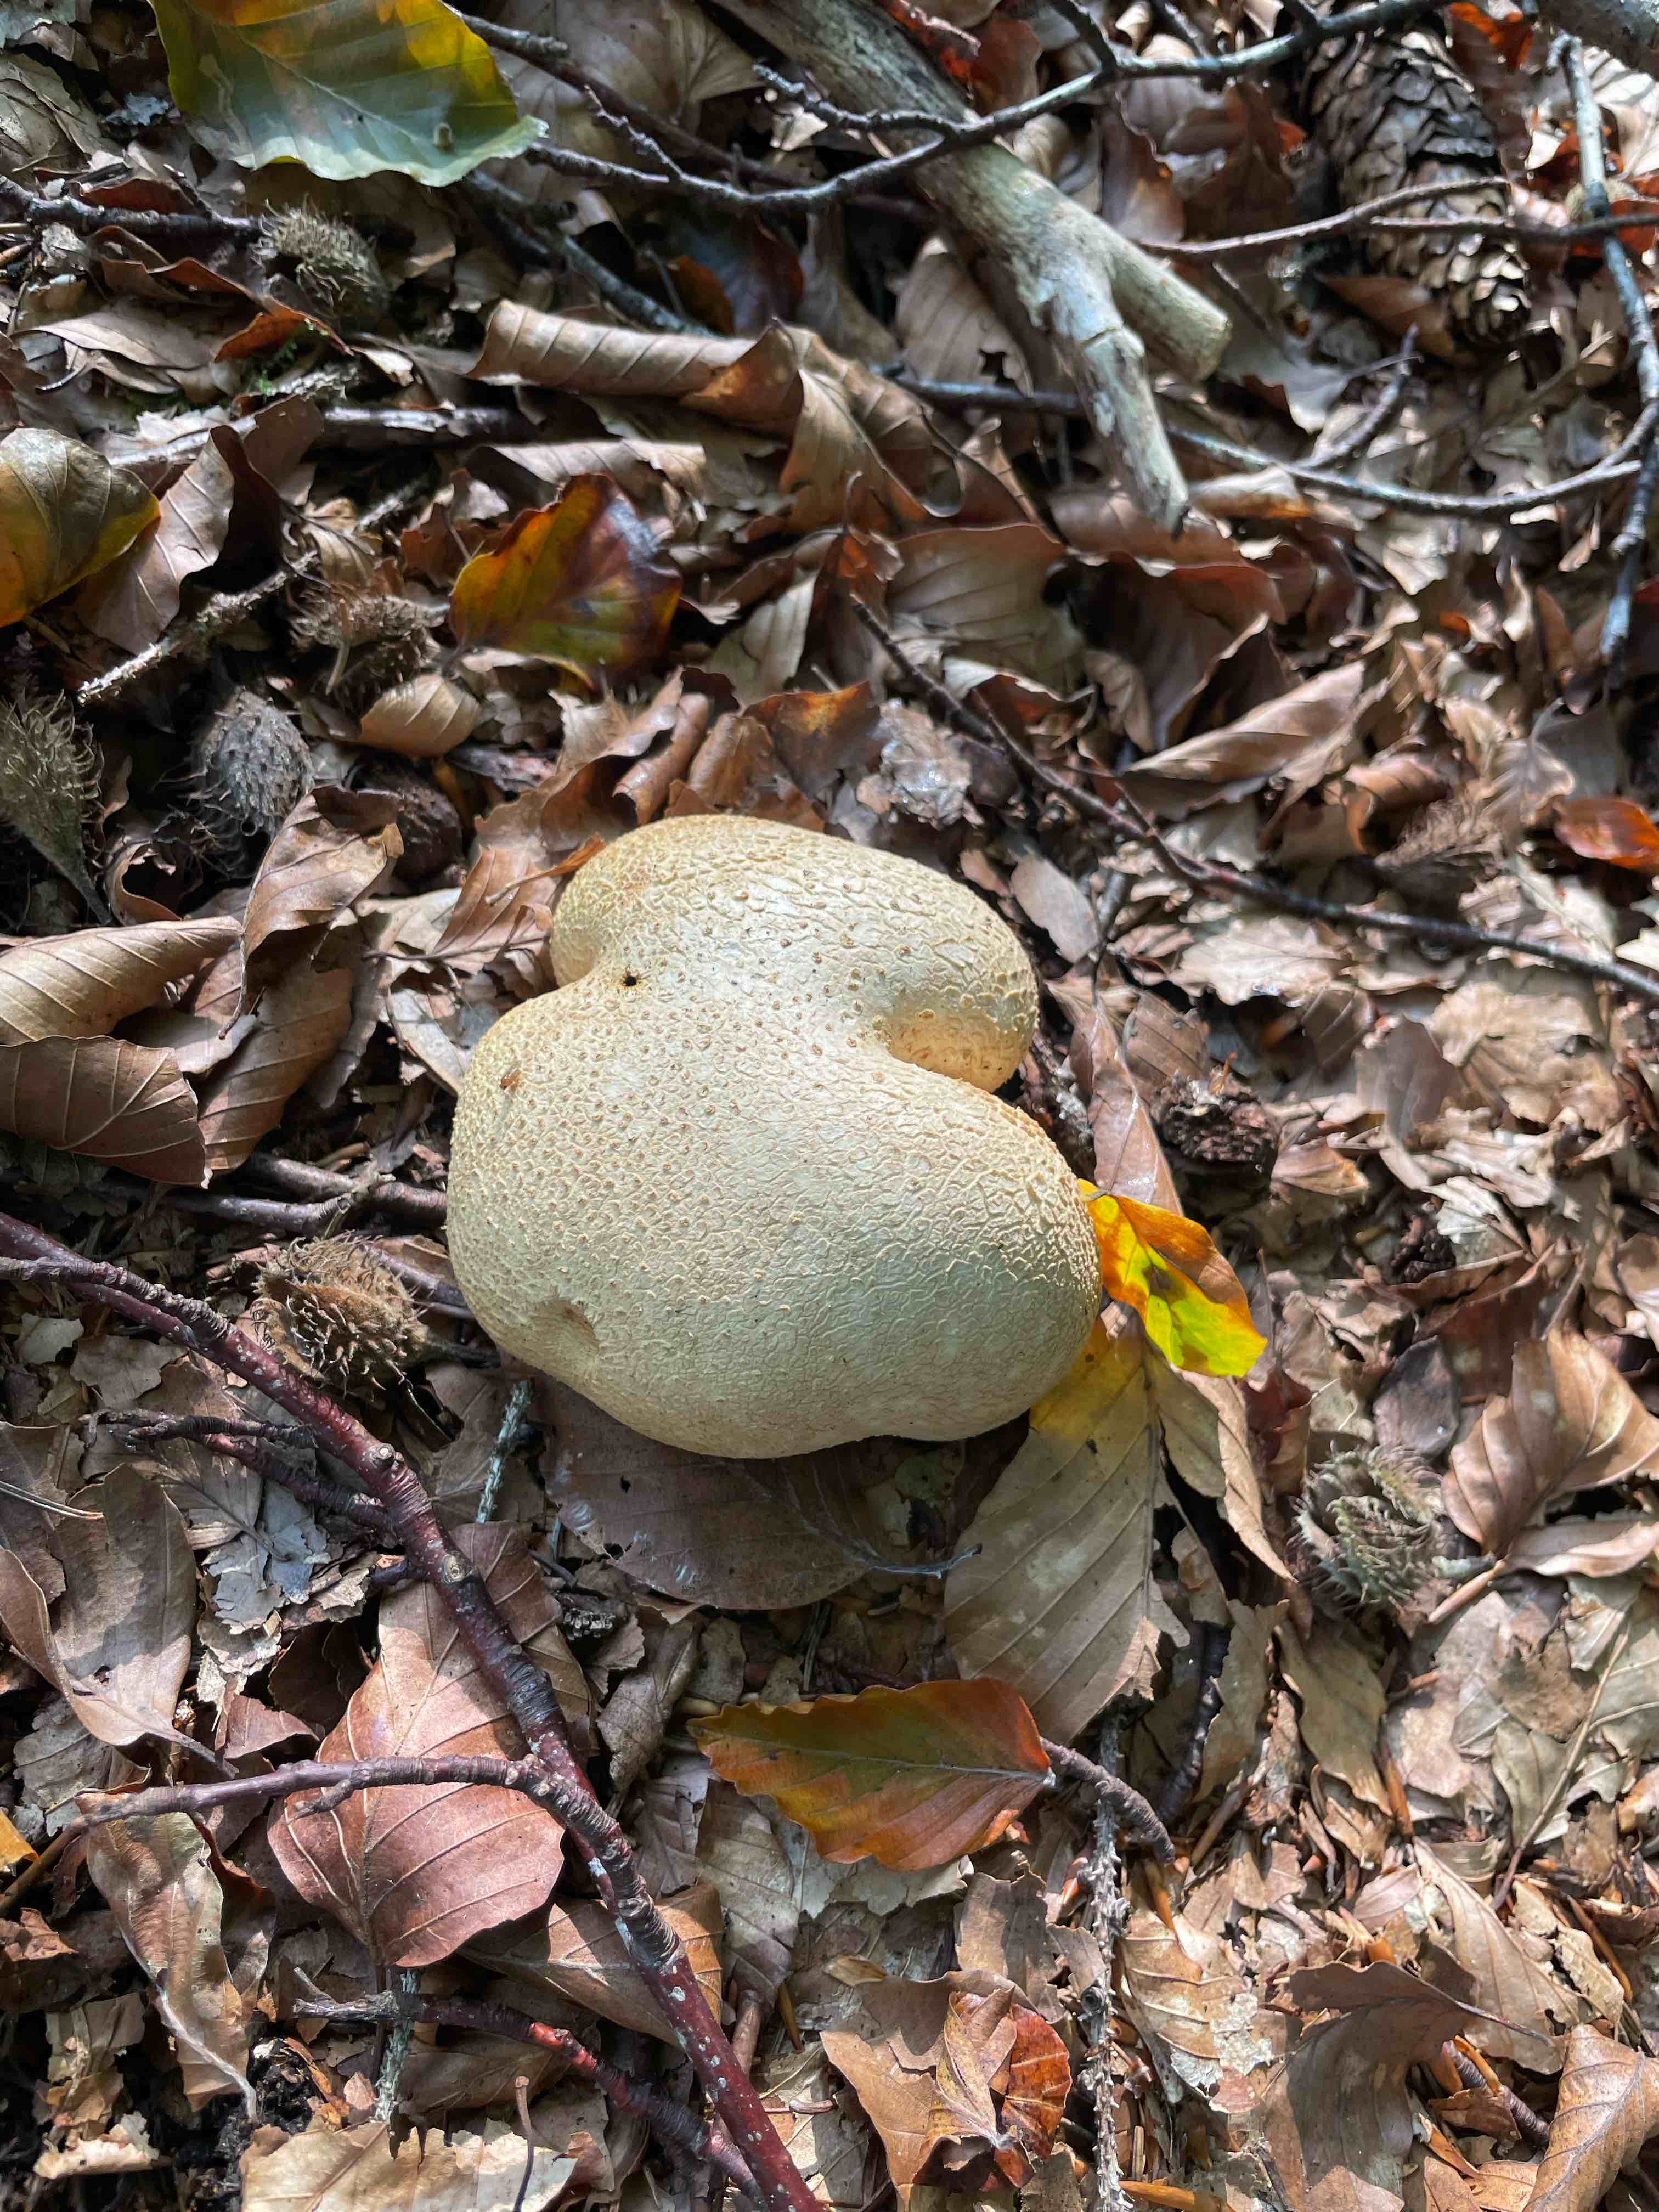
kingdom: Fungi
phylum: Basidiomycota
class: Agaricomycetes
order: Boletales
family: Sclerodermataceae
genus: Scleroderma
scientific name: Scleroderma citrinum
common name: almindelig bruskbold
